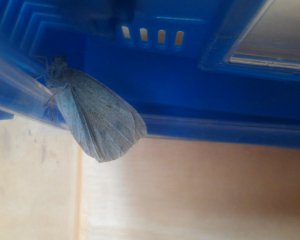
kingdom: Animalia
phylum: Arthropoda
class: Insecta
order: Lepidoptera
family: Pieridae
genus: Pieris
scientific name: Pieris rapae
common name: Cabbage White
